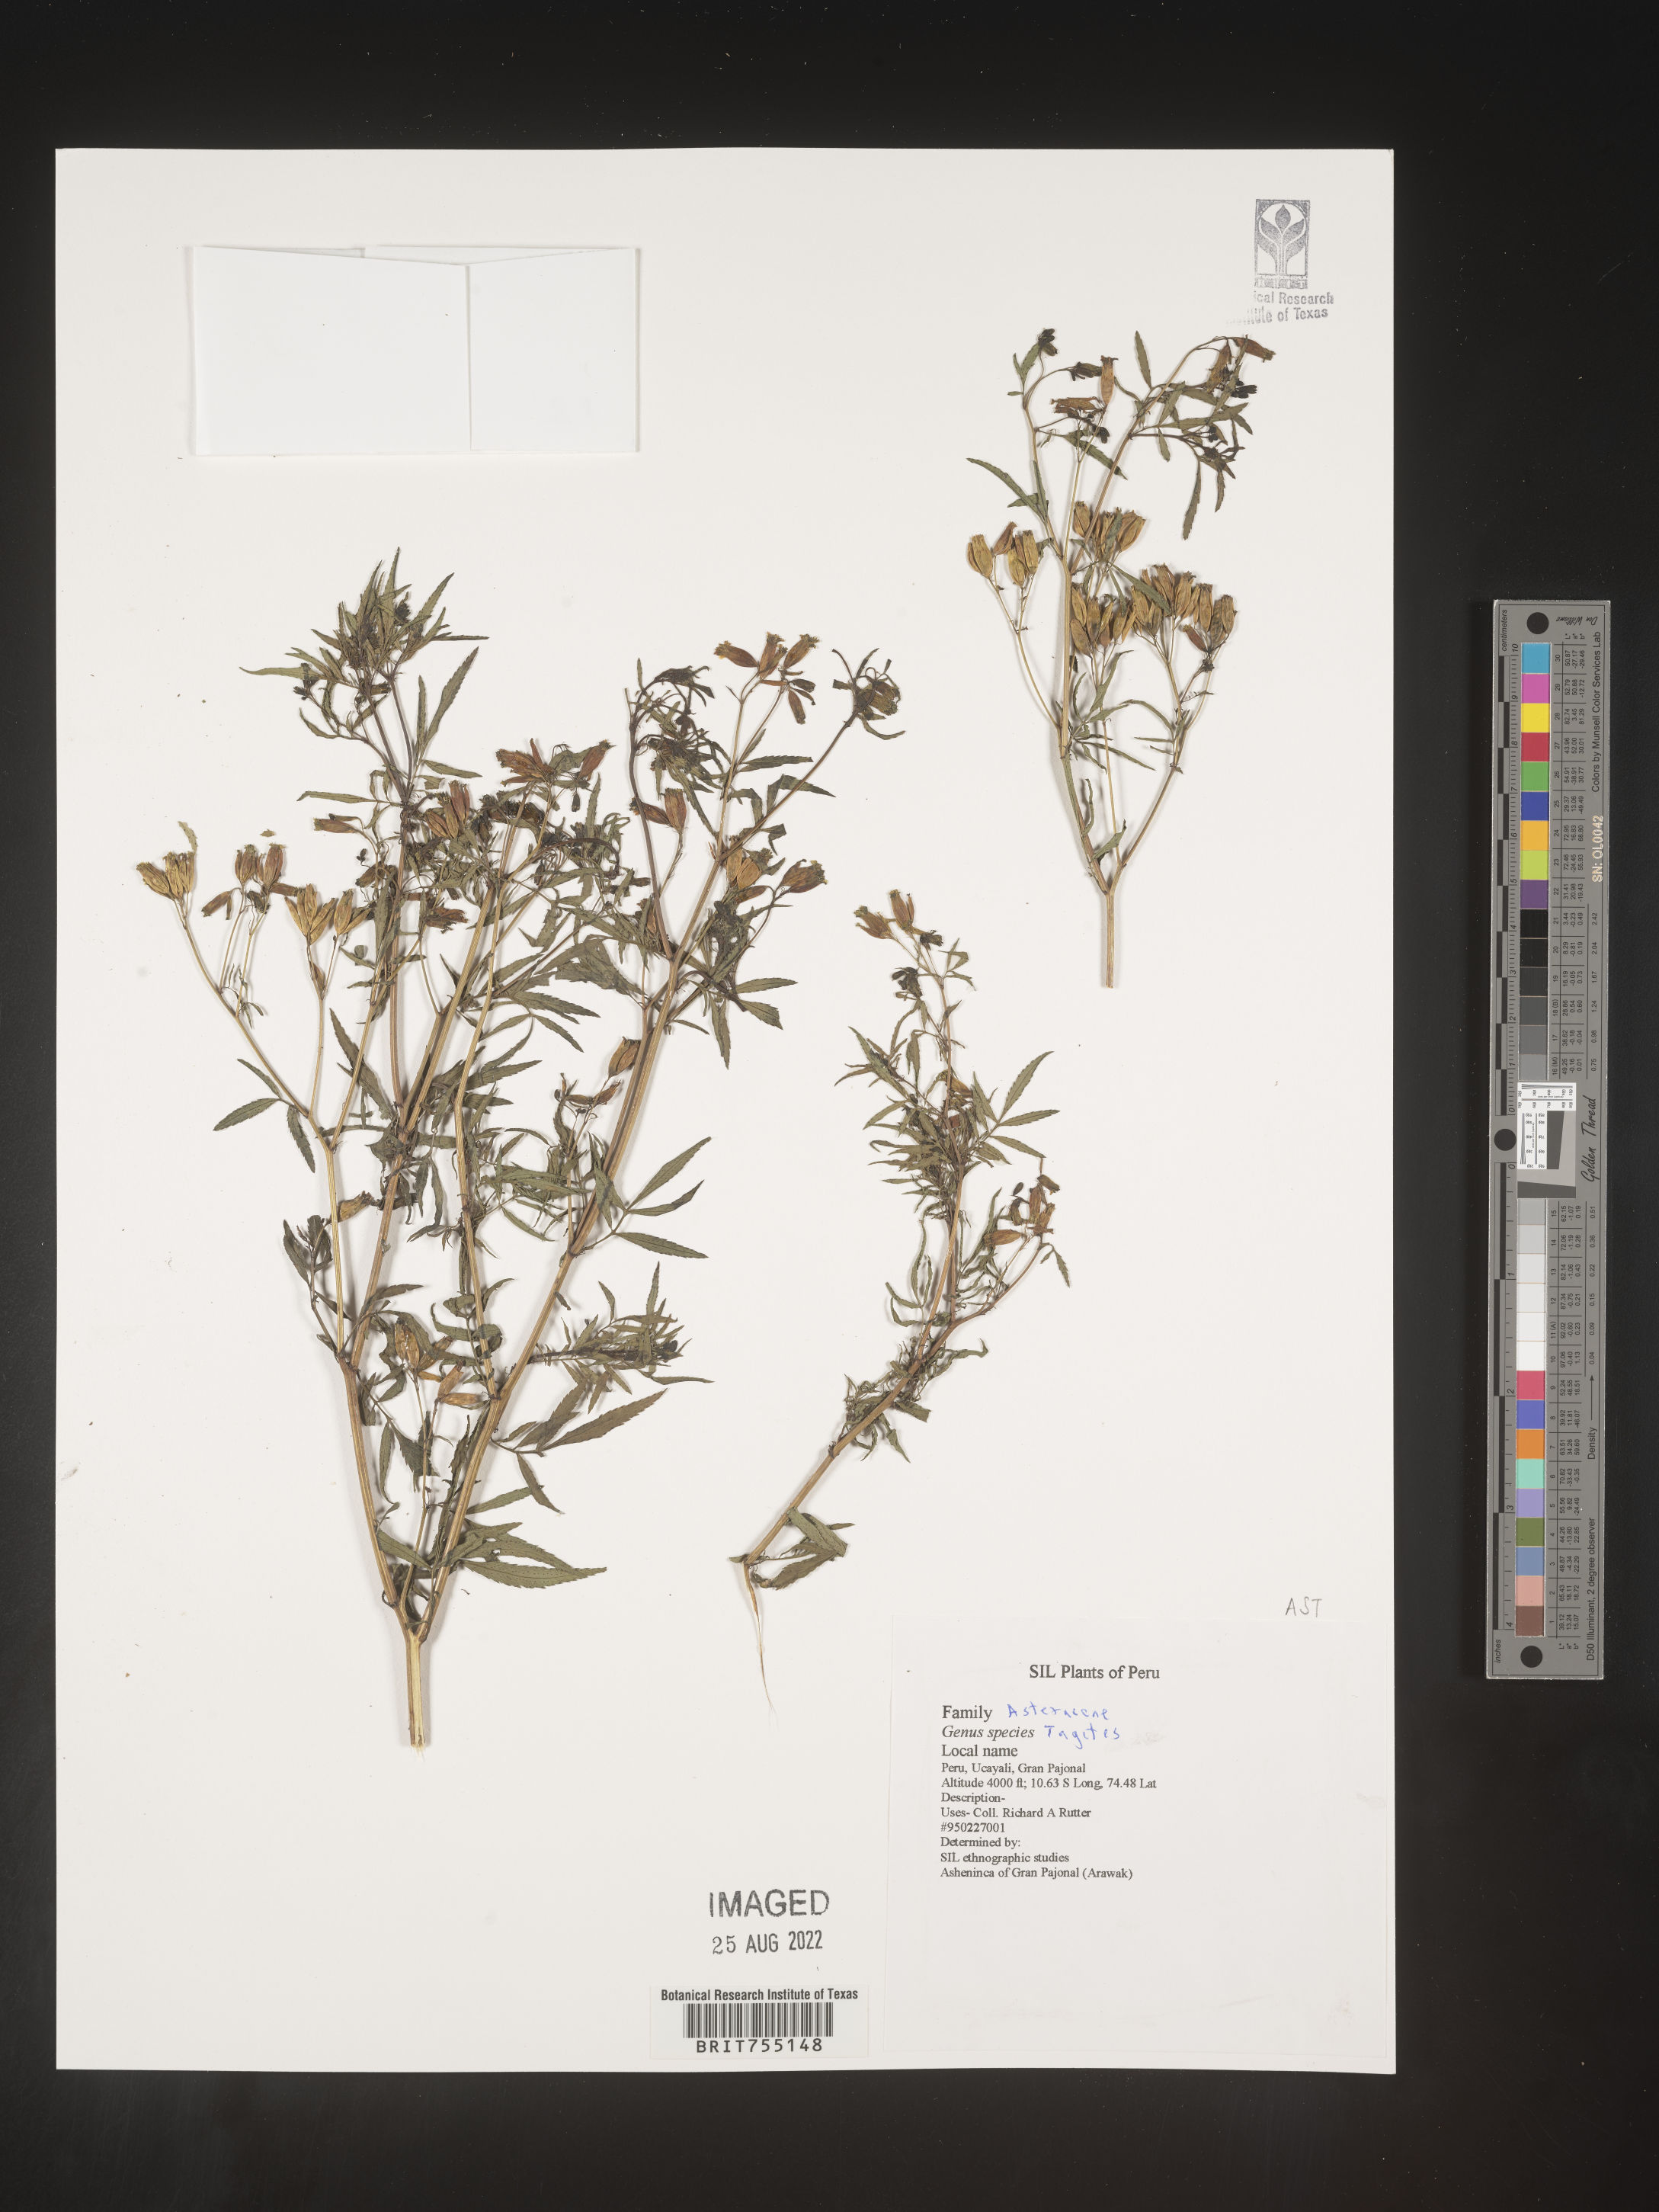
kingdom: Plantae
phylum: Tracheophyta
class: Magnoliopsida
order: Asterales
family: Asteraceae
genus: Tagetes
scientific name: Tagetes
